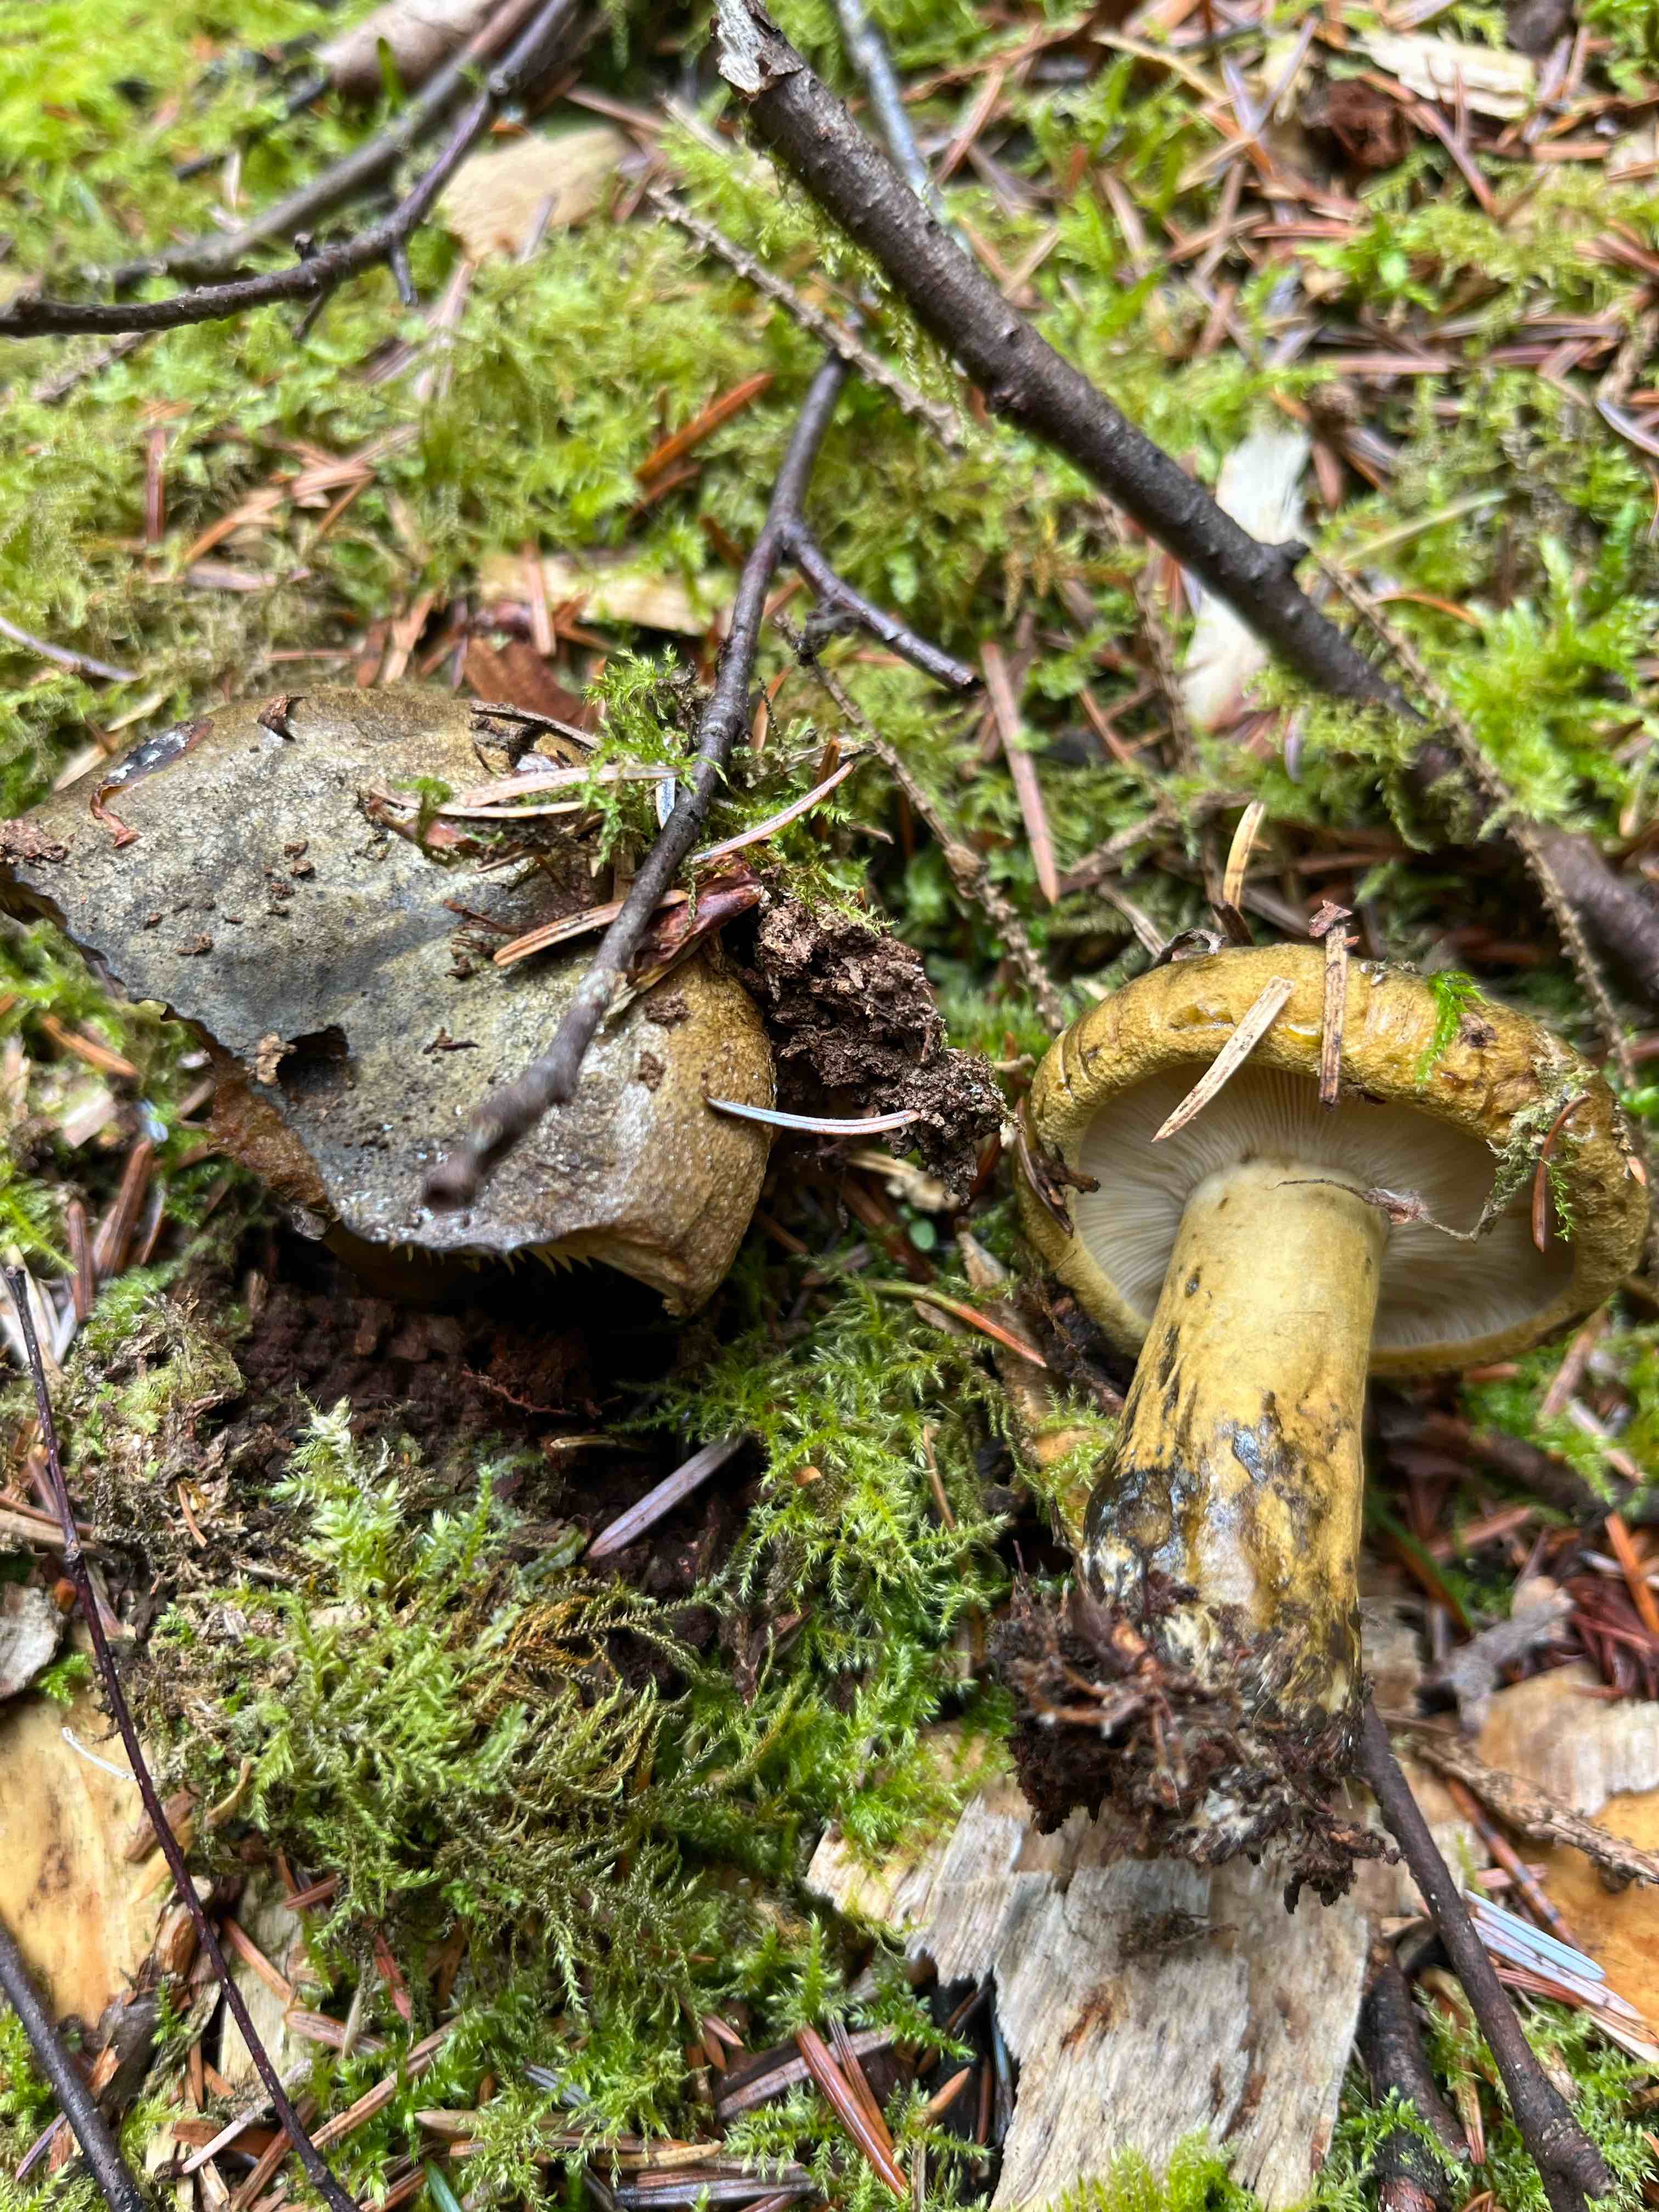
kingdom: Fungi
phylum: Basidiomycota
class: Agaricomycetes
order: Russulales
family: Russulaceae
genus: Lactarius
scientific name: Lactarius necator
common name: manddraber-mælkehat
